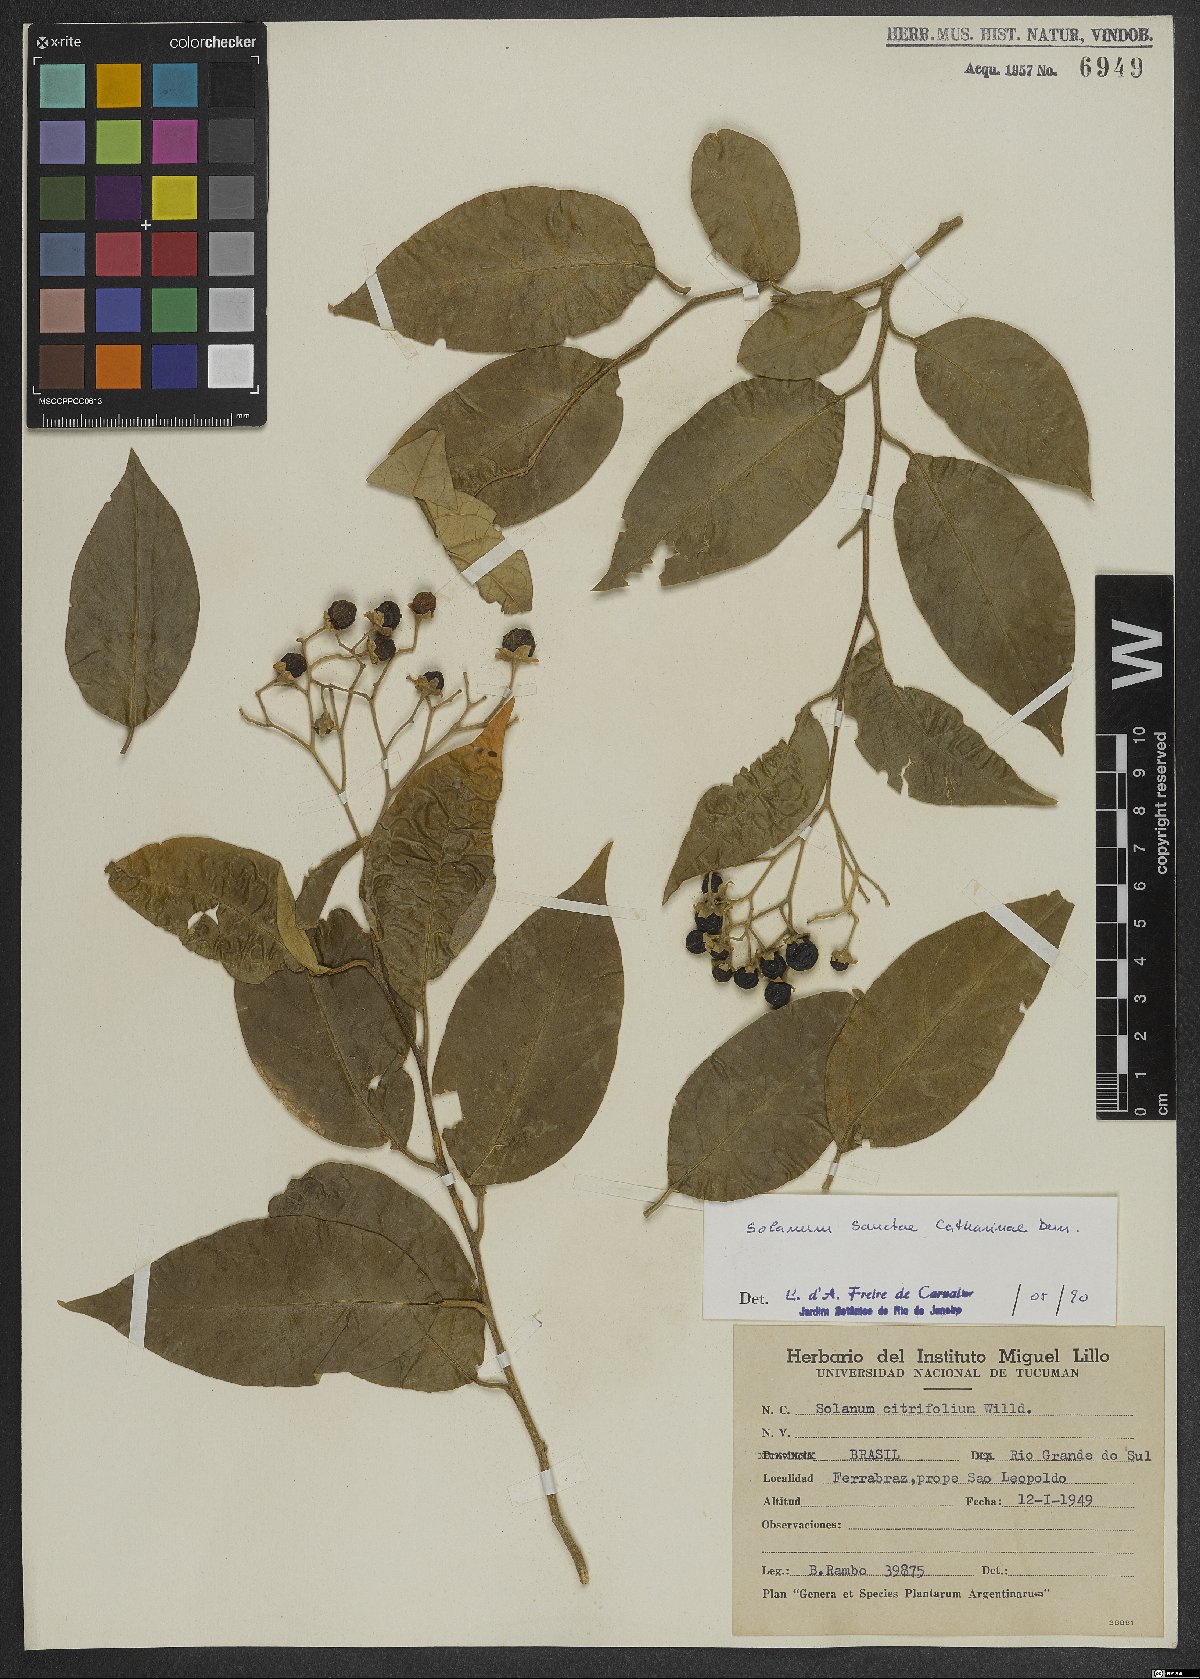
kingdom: Plantae
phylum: Tracheophyta
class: Magnoliopsida
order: Solanales
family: Solanaceae
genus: Solanum
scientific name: Solanum sanctae-catharinae
